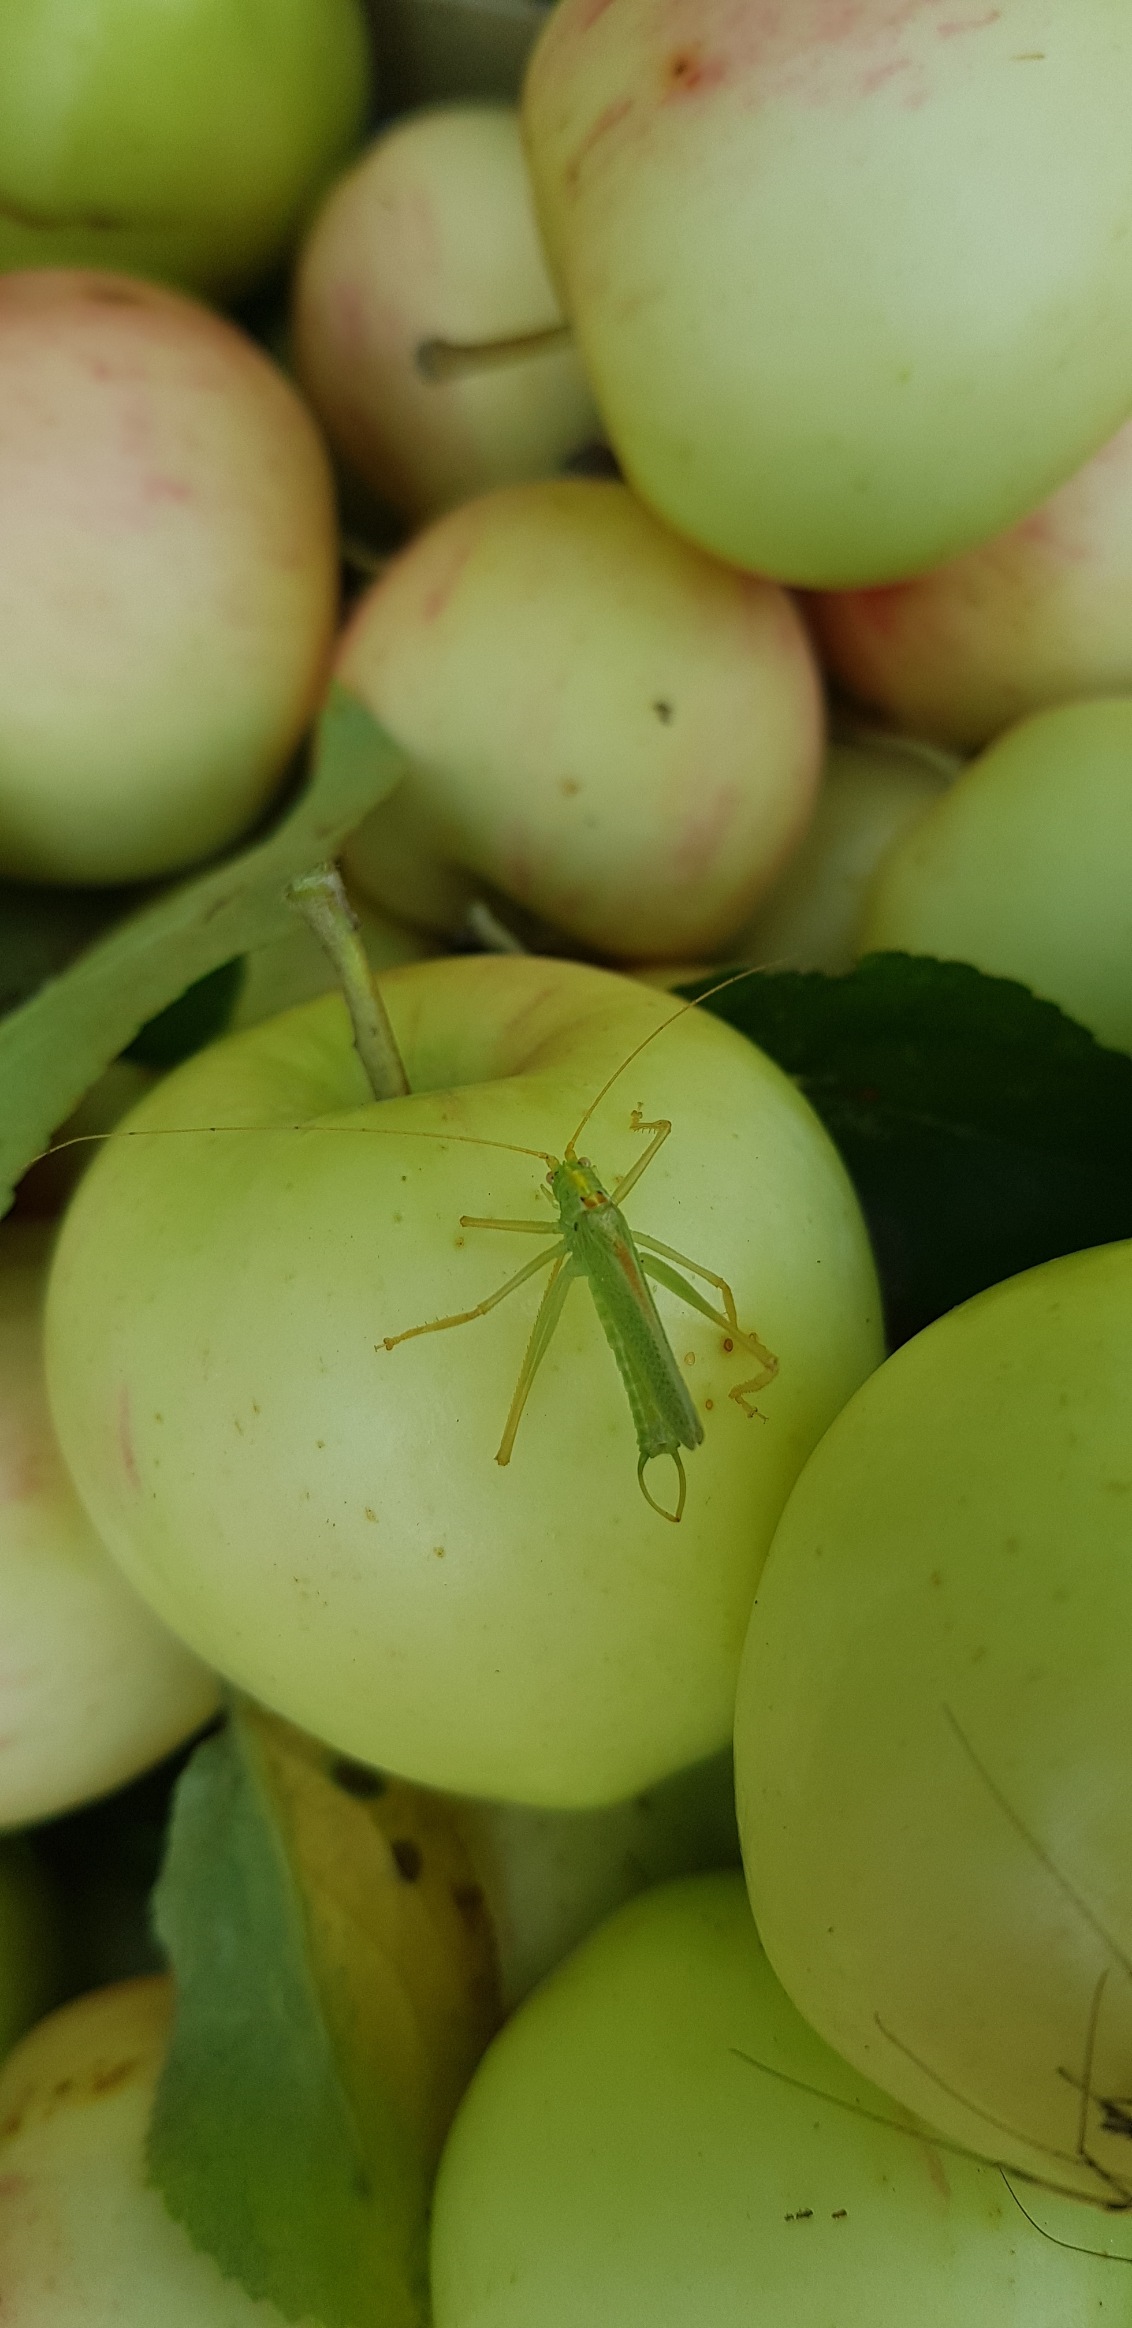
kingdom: Animalia
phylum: Arthropoda
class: Insecta
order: Orthoptera
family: Tettigoniidae
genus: Meconema
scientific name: Meconema thalassinum
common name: Egegræshoppe
